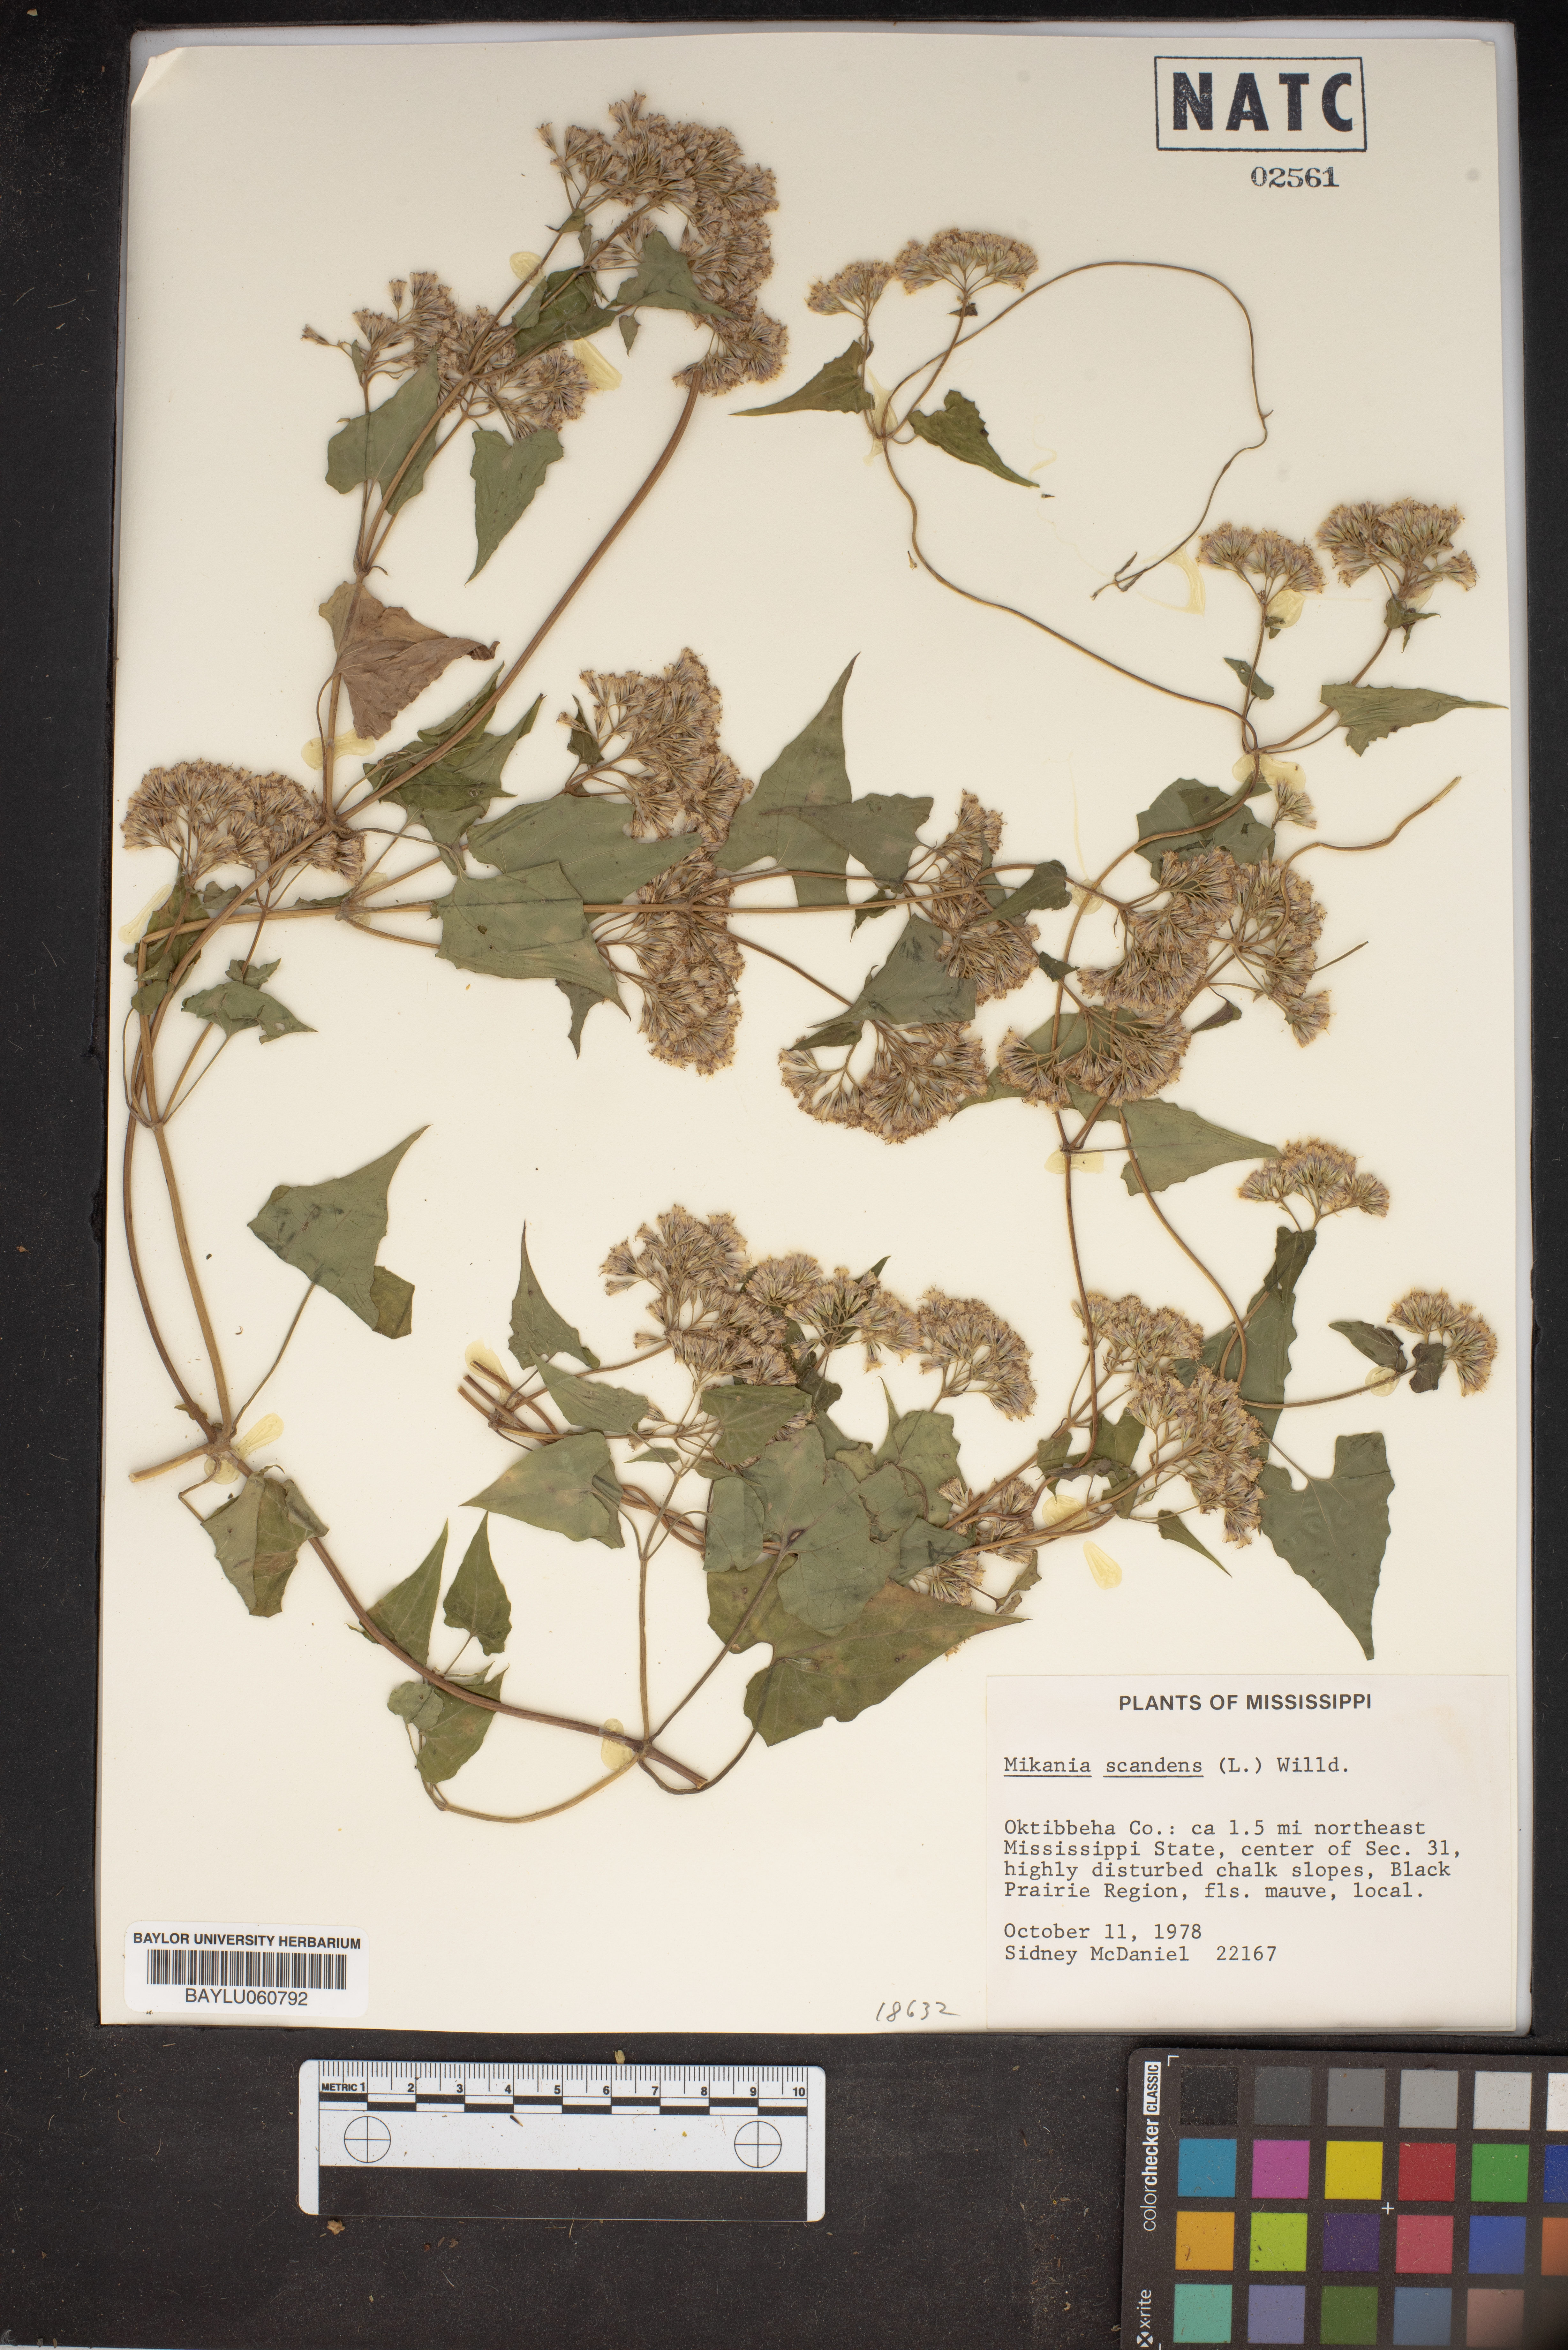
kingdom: Plantae
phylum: Tracheophyta
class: Magnoliopsida
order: Asterales
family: Asteraceae
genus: Mikania
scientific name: Mikania scandens
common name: Climbing hempvine
